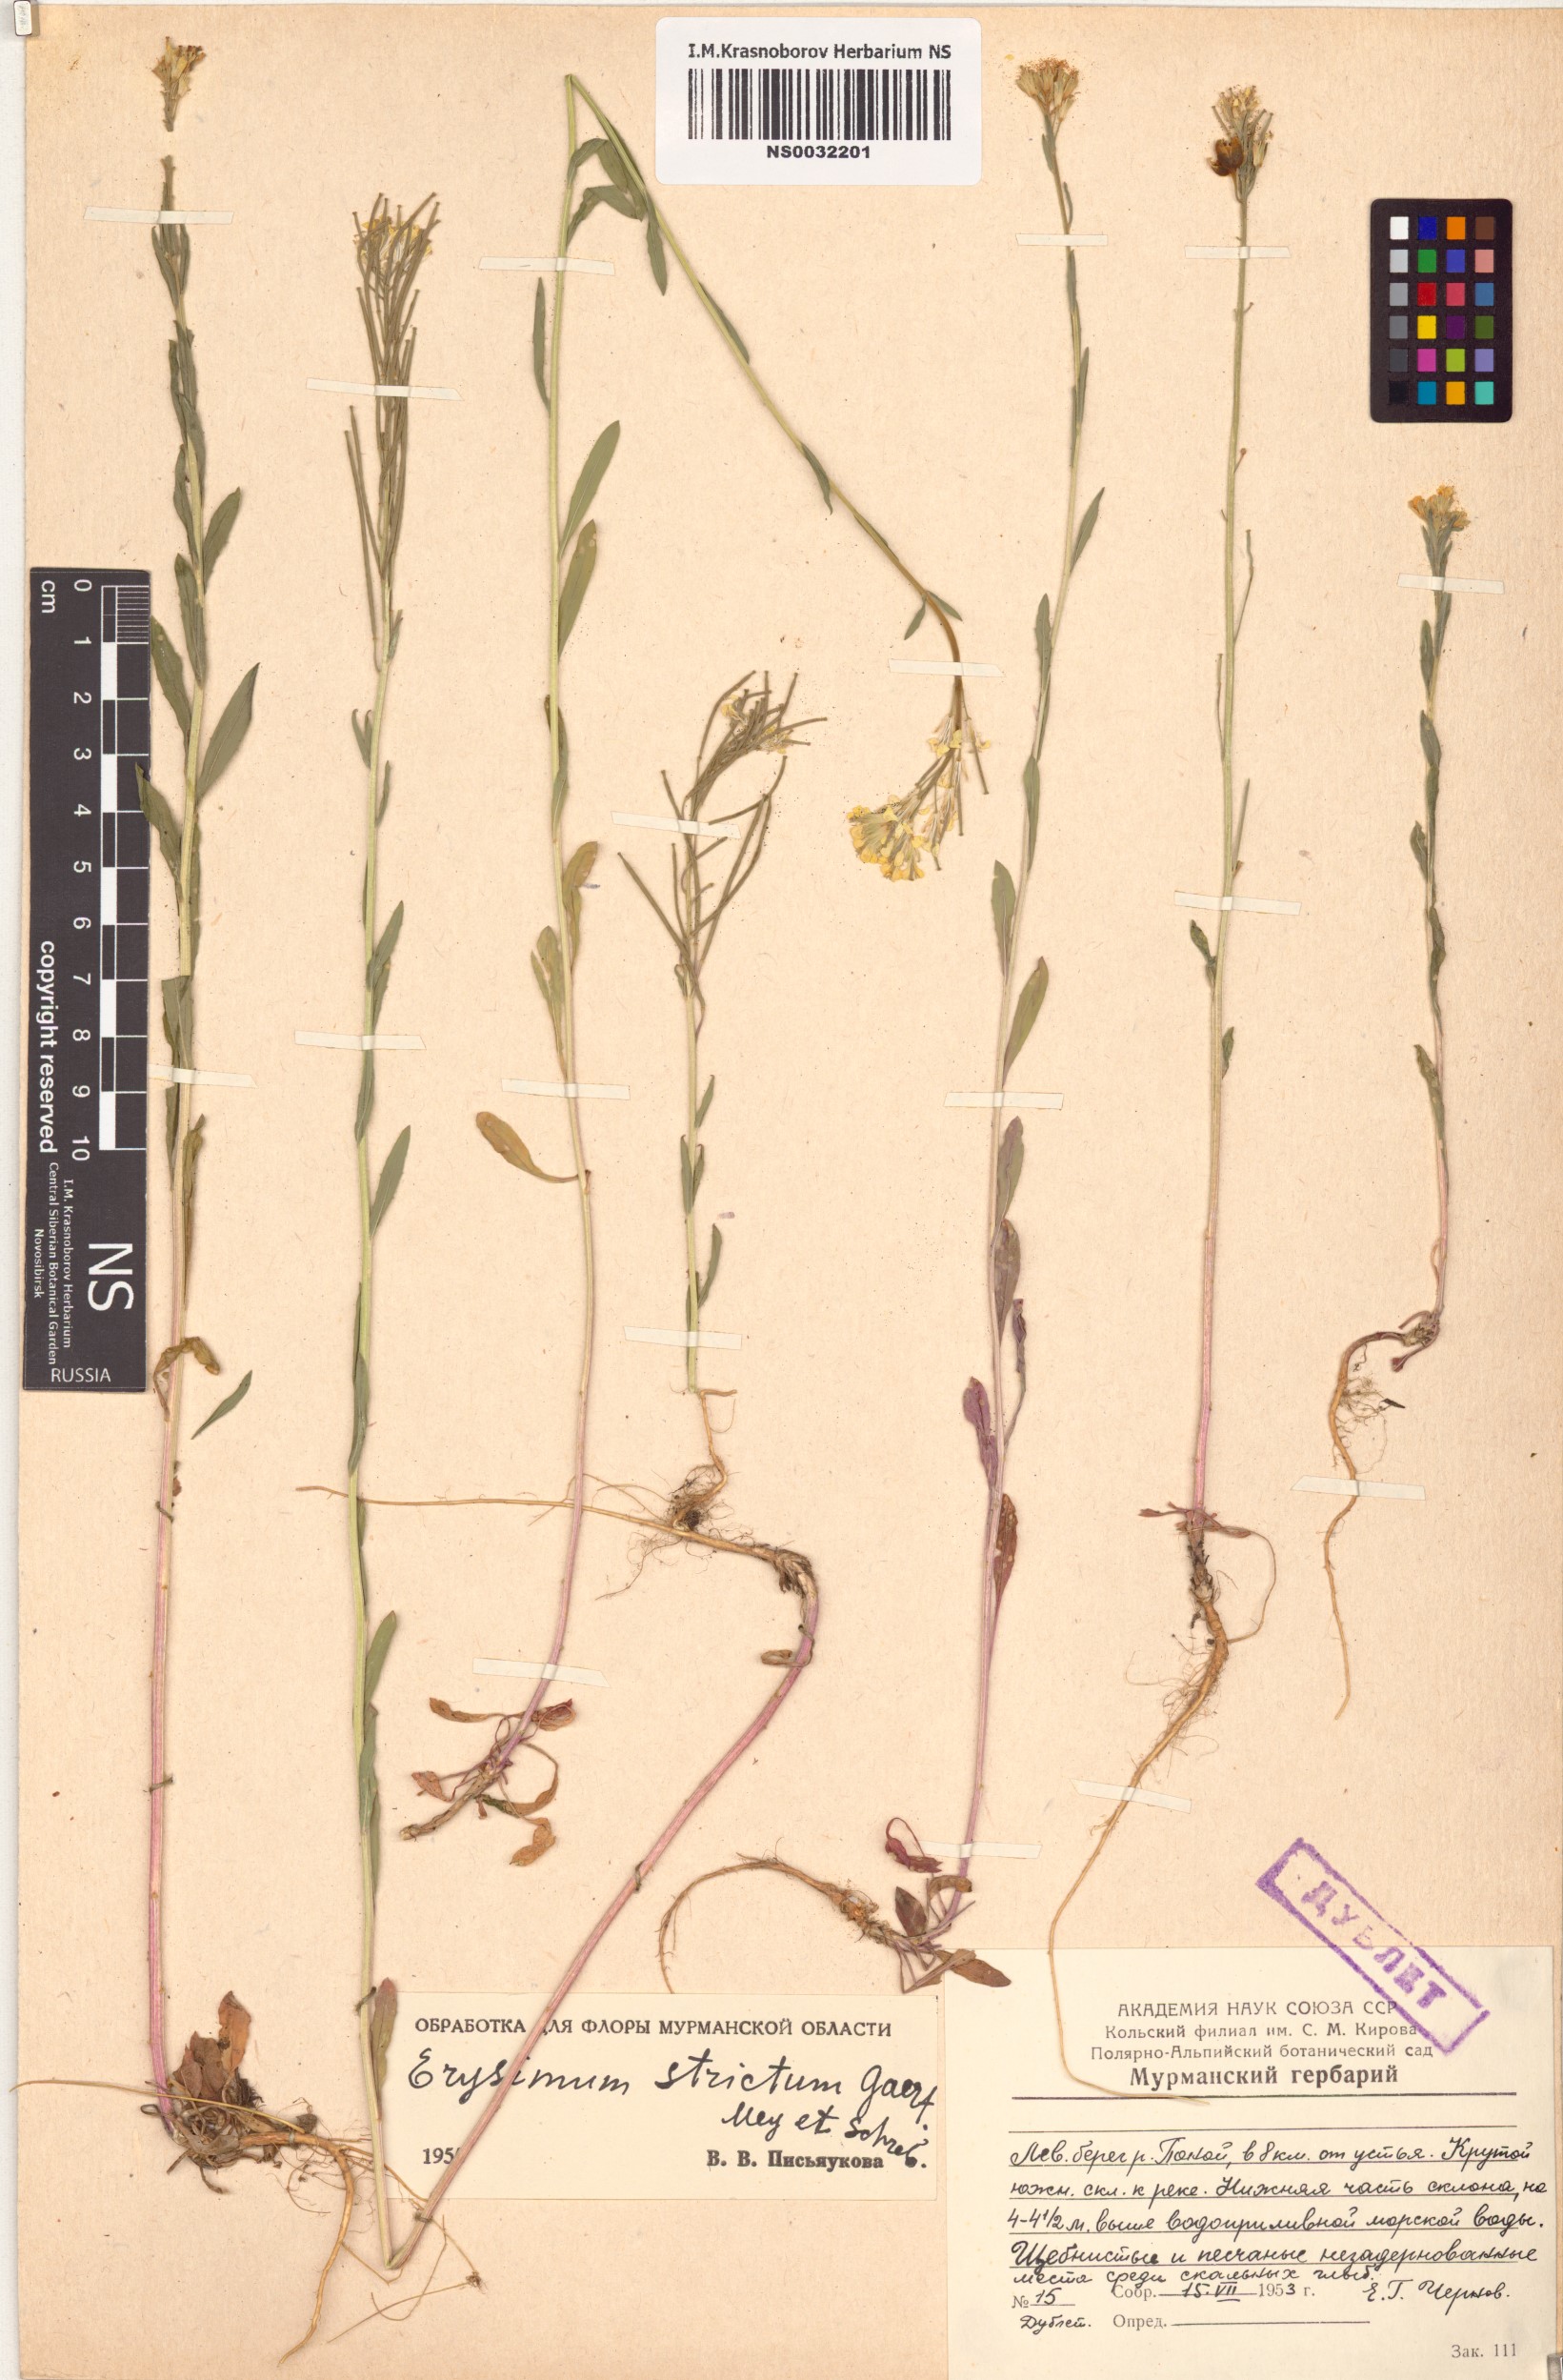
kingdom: Plantae
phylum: Tracheophyta
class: Magnoliopsida
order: Brassicales
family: Brassicaceae
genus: Erysimum
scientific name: Erysimum strictum
